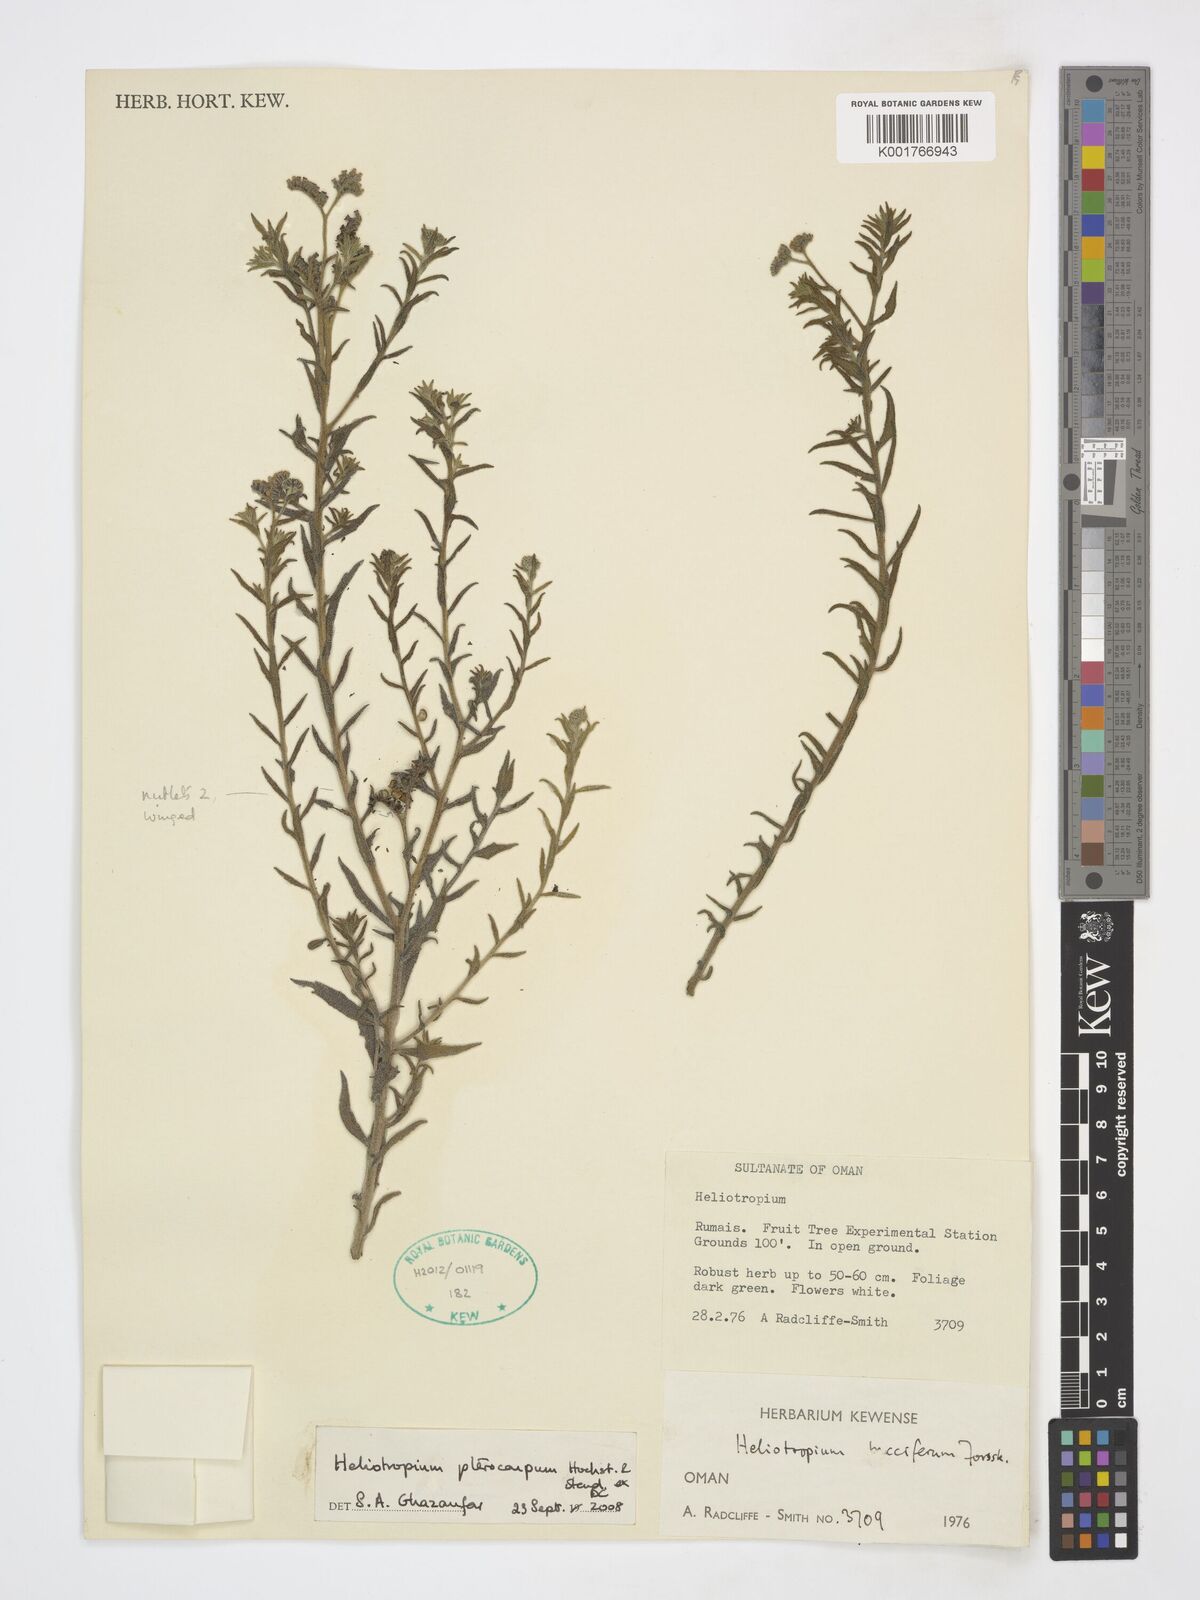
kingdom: Plantae
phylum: Tracheophyta
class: Magnoliopsida
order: Boraginales
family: Heliotropiaceae
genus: Heliotropium
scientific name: Heliotropium pterocarpum
